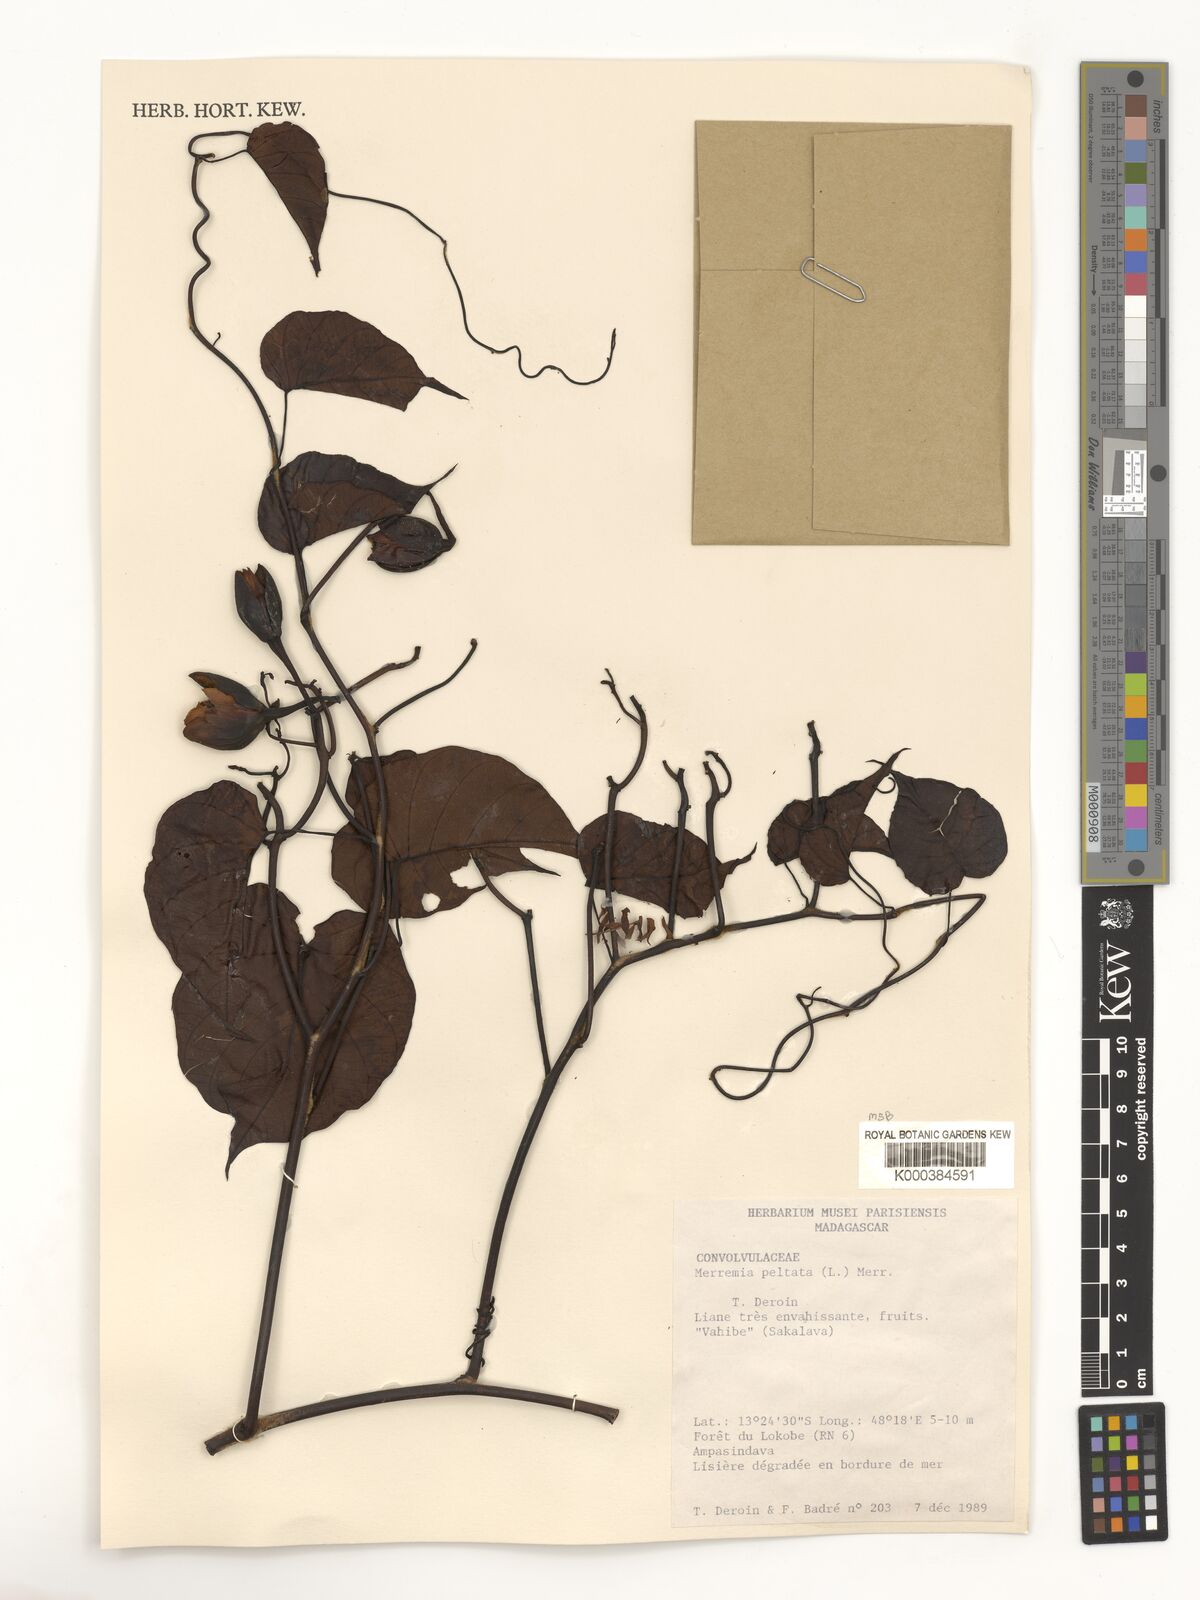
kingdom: Plantae
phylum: Tracheophyta
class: Magnoliopsida
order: Solanales
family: Convolvulaceae
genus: Decalobanthus
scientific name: Decalobanthus peltatus
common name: Merremia
